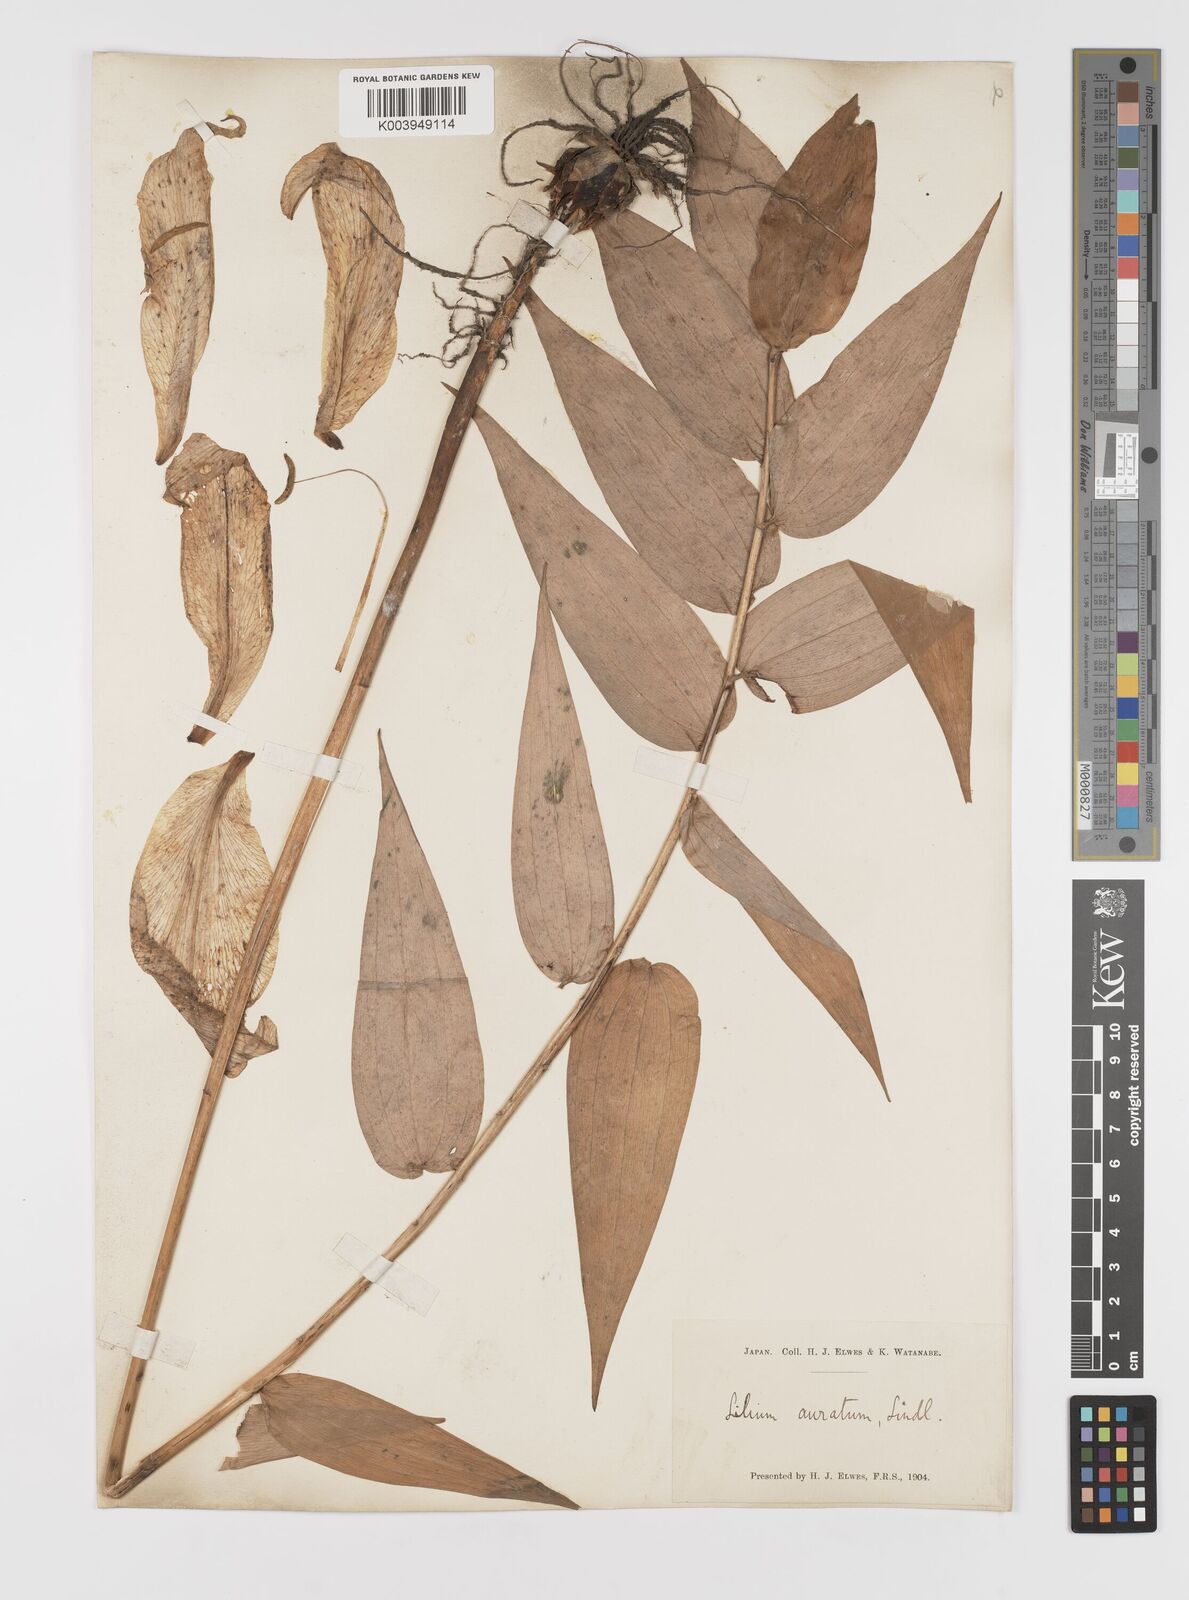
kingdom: Plantae
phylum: Tracheophyta
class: Liliopsida
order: Liliales
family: Liliaceae
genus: Lilium
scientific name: Lilium auratum
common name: Golden-ray lily
